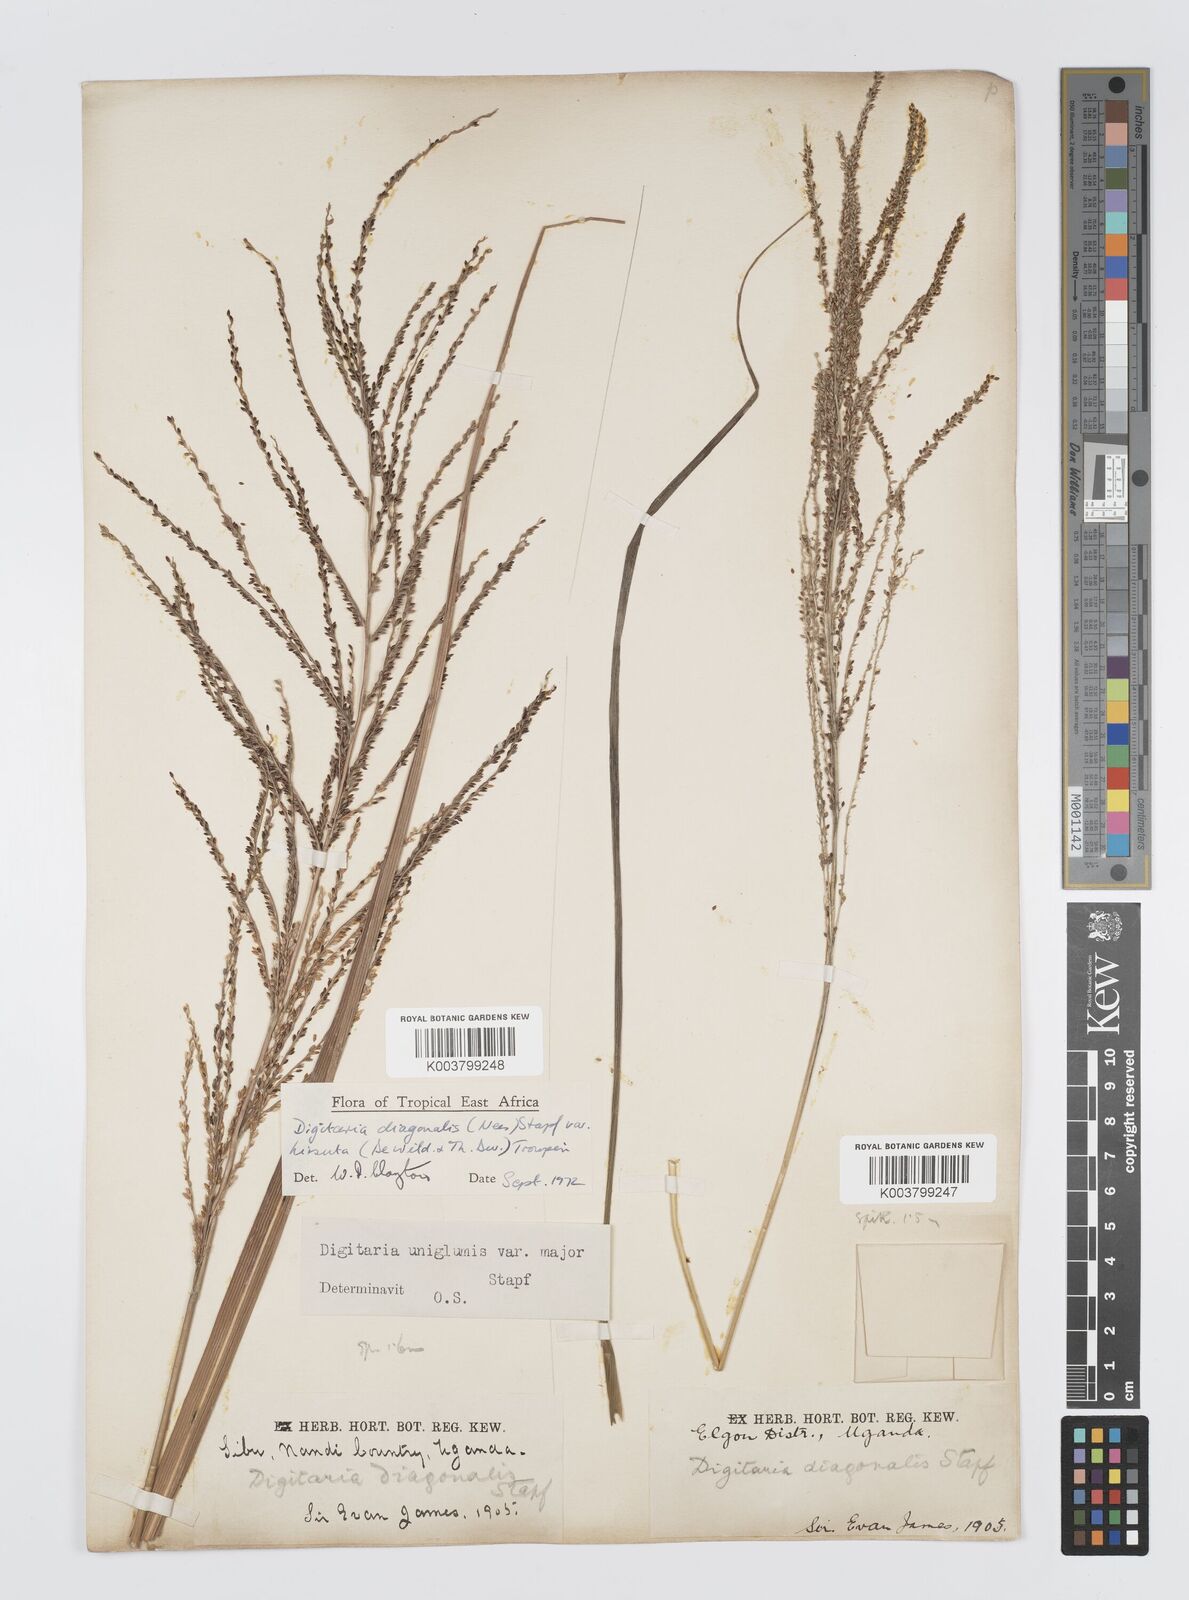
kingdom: Plantae
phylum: Tracheophyta
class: Liliopsida
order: Poales
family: Poaceae
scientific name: Poaceae
